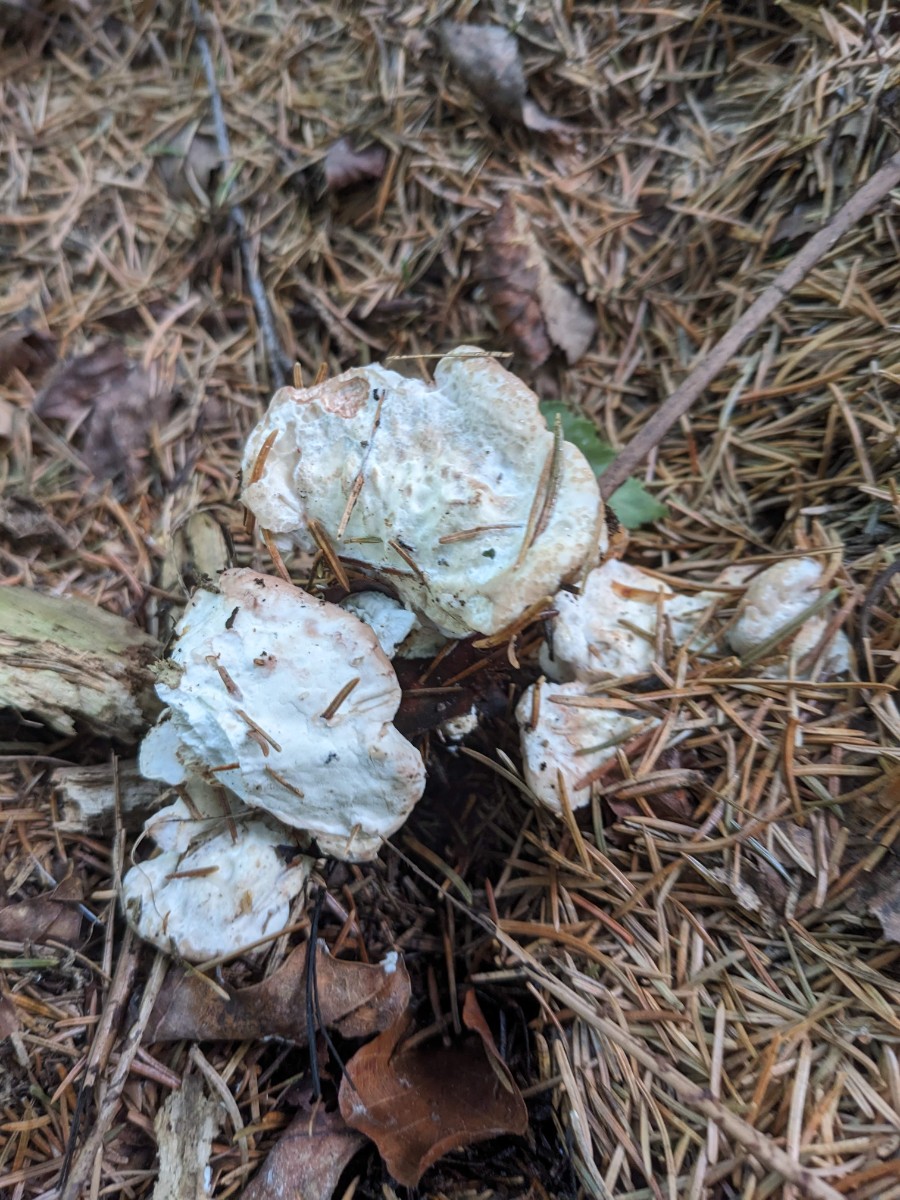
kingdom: Fungi
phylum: Basidiomycota
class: Agaricomycetes
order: Polyporales
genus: Calcipostia
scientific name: Calcipostia guttulata
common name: dråbe-kødporesvamp
